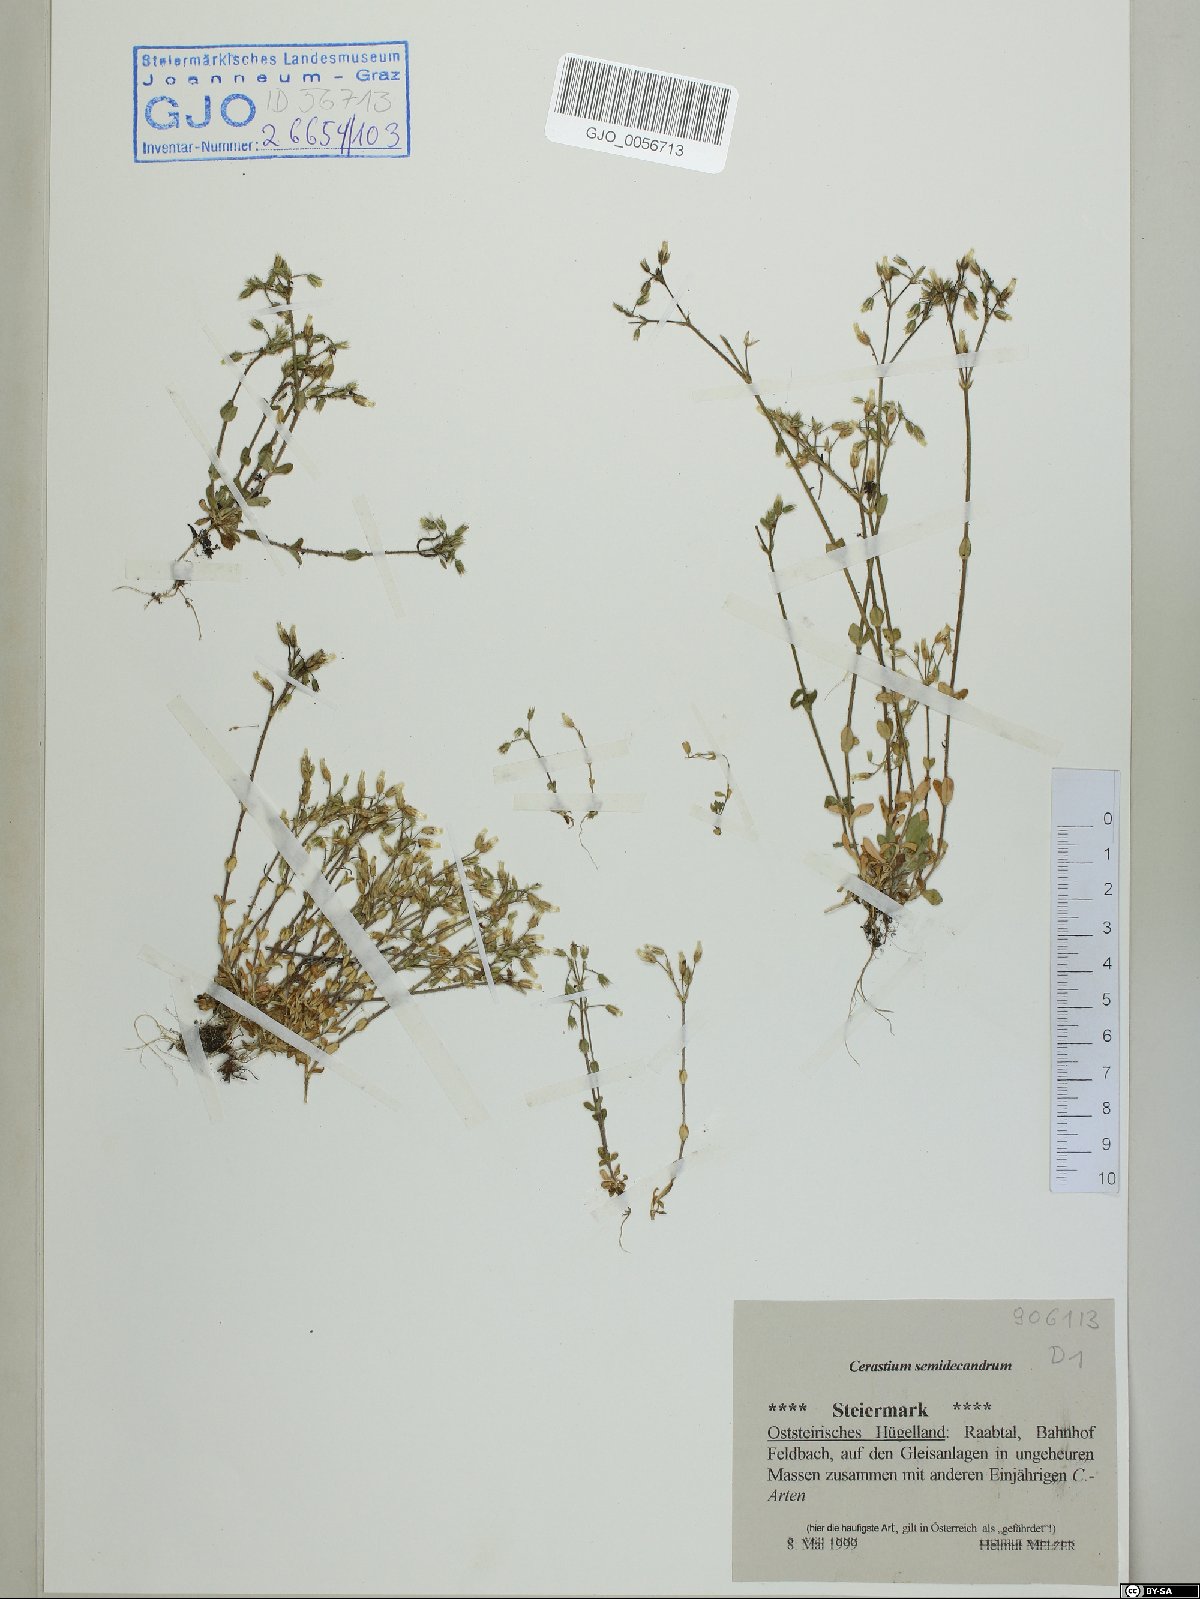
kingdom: Plantae
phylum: Tracheophyta
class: Magnoliopsida
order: Caryophyllales
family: Caryophyllaceae
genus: Cerastium
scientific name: Cerastium semidecandrum
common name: Little mouse-ear
